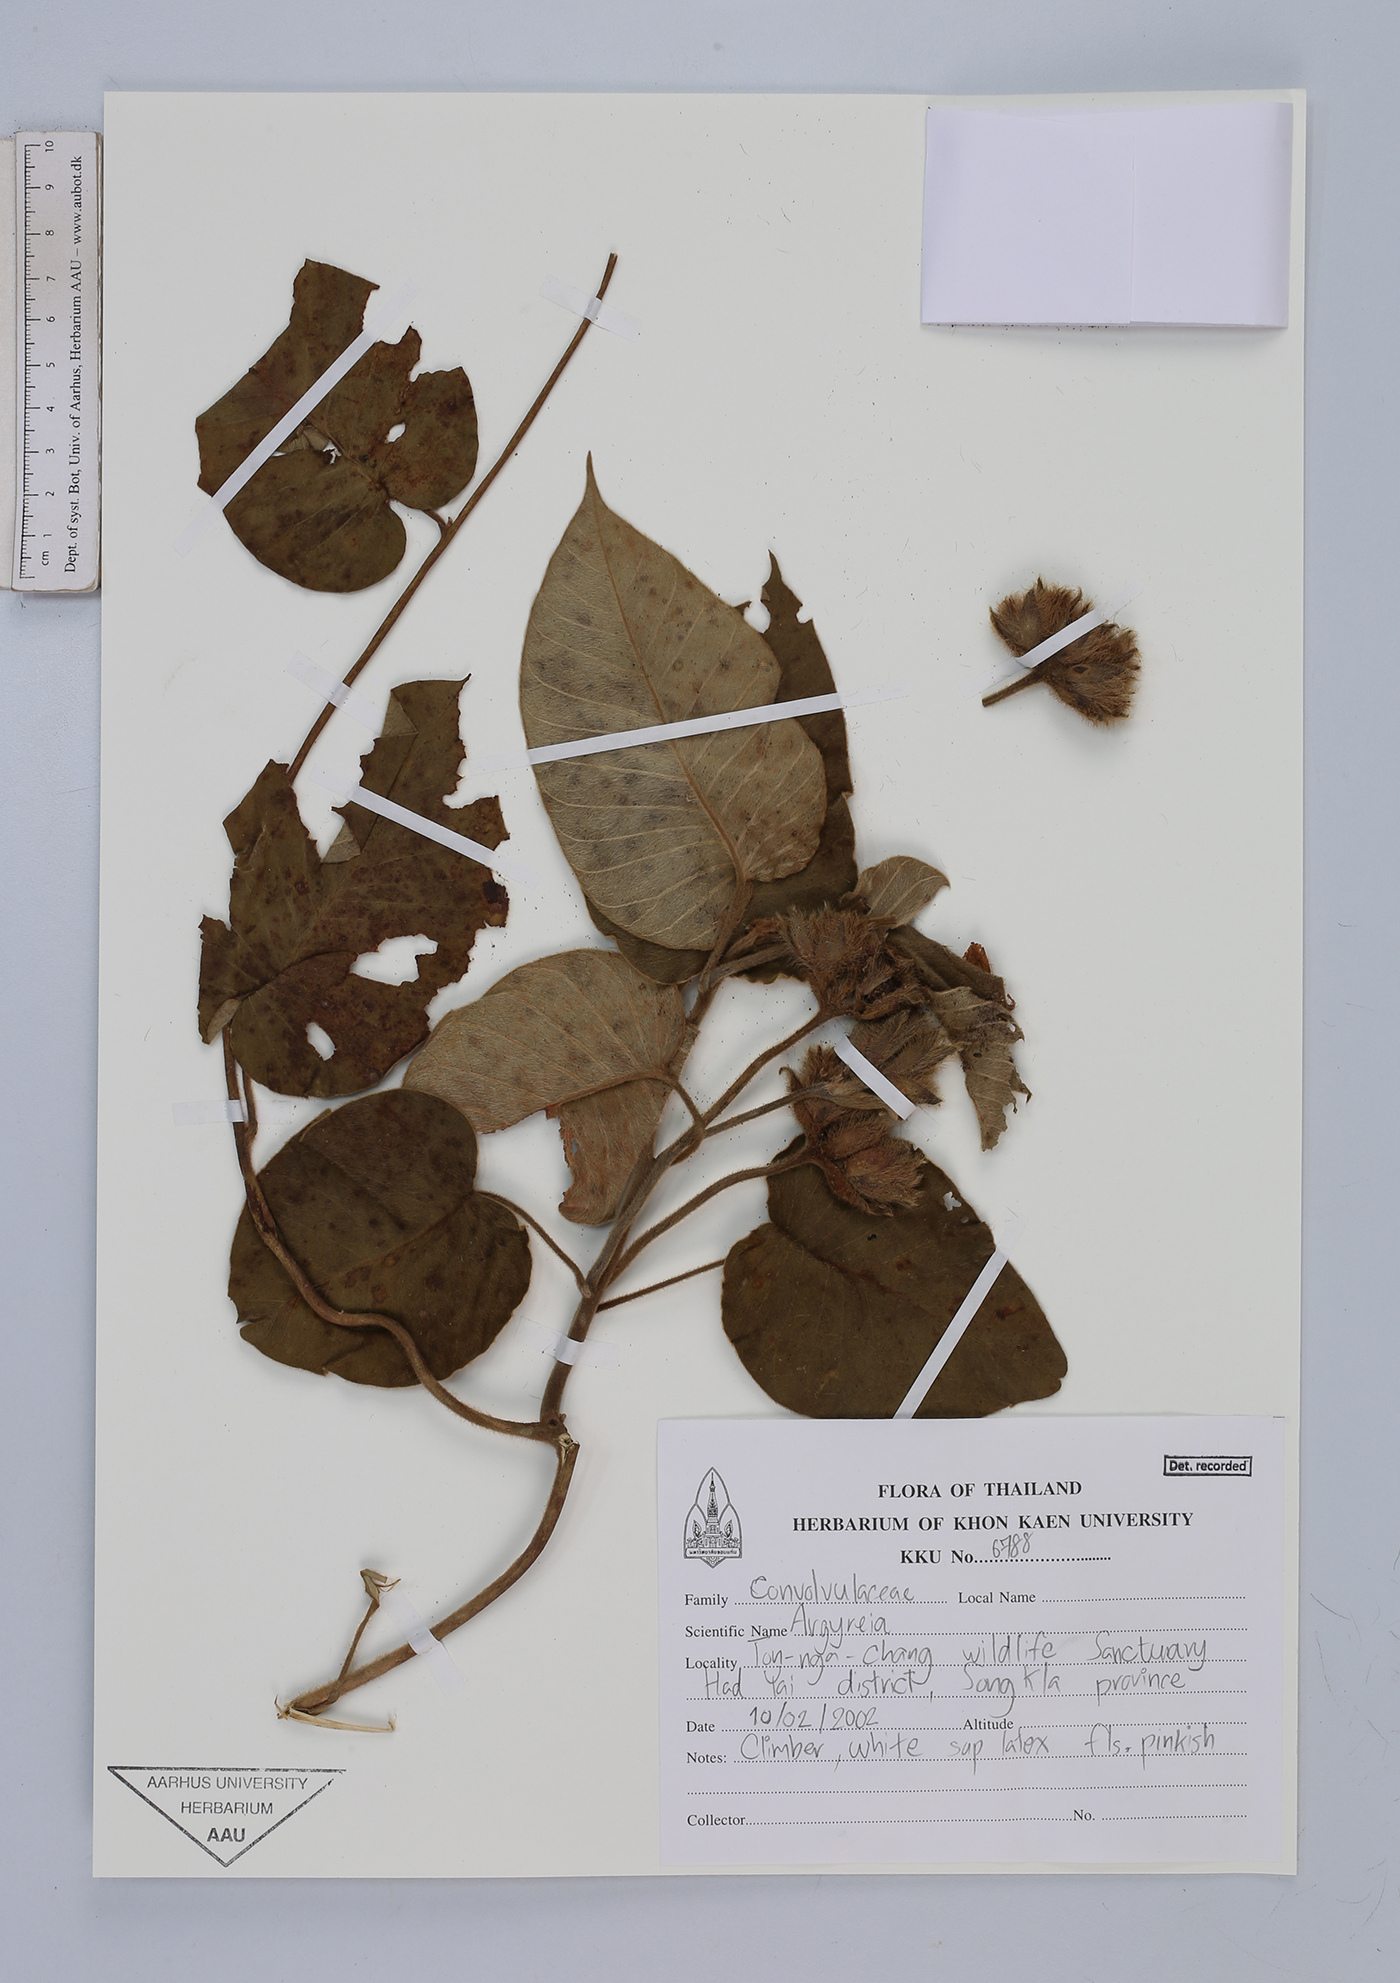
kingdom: Plantae
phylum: Tracheophyta
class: Magnoliopsida
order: Solanales
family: Convolvulaceae
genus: Argyreia
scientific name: Argyreia
